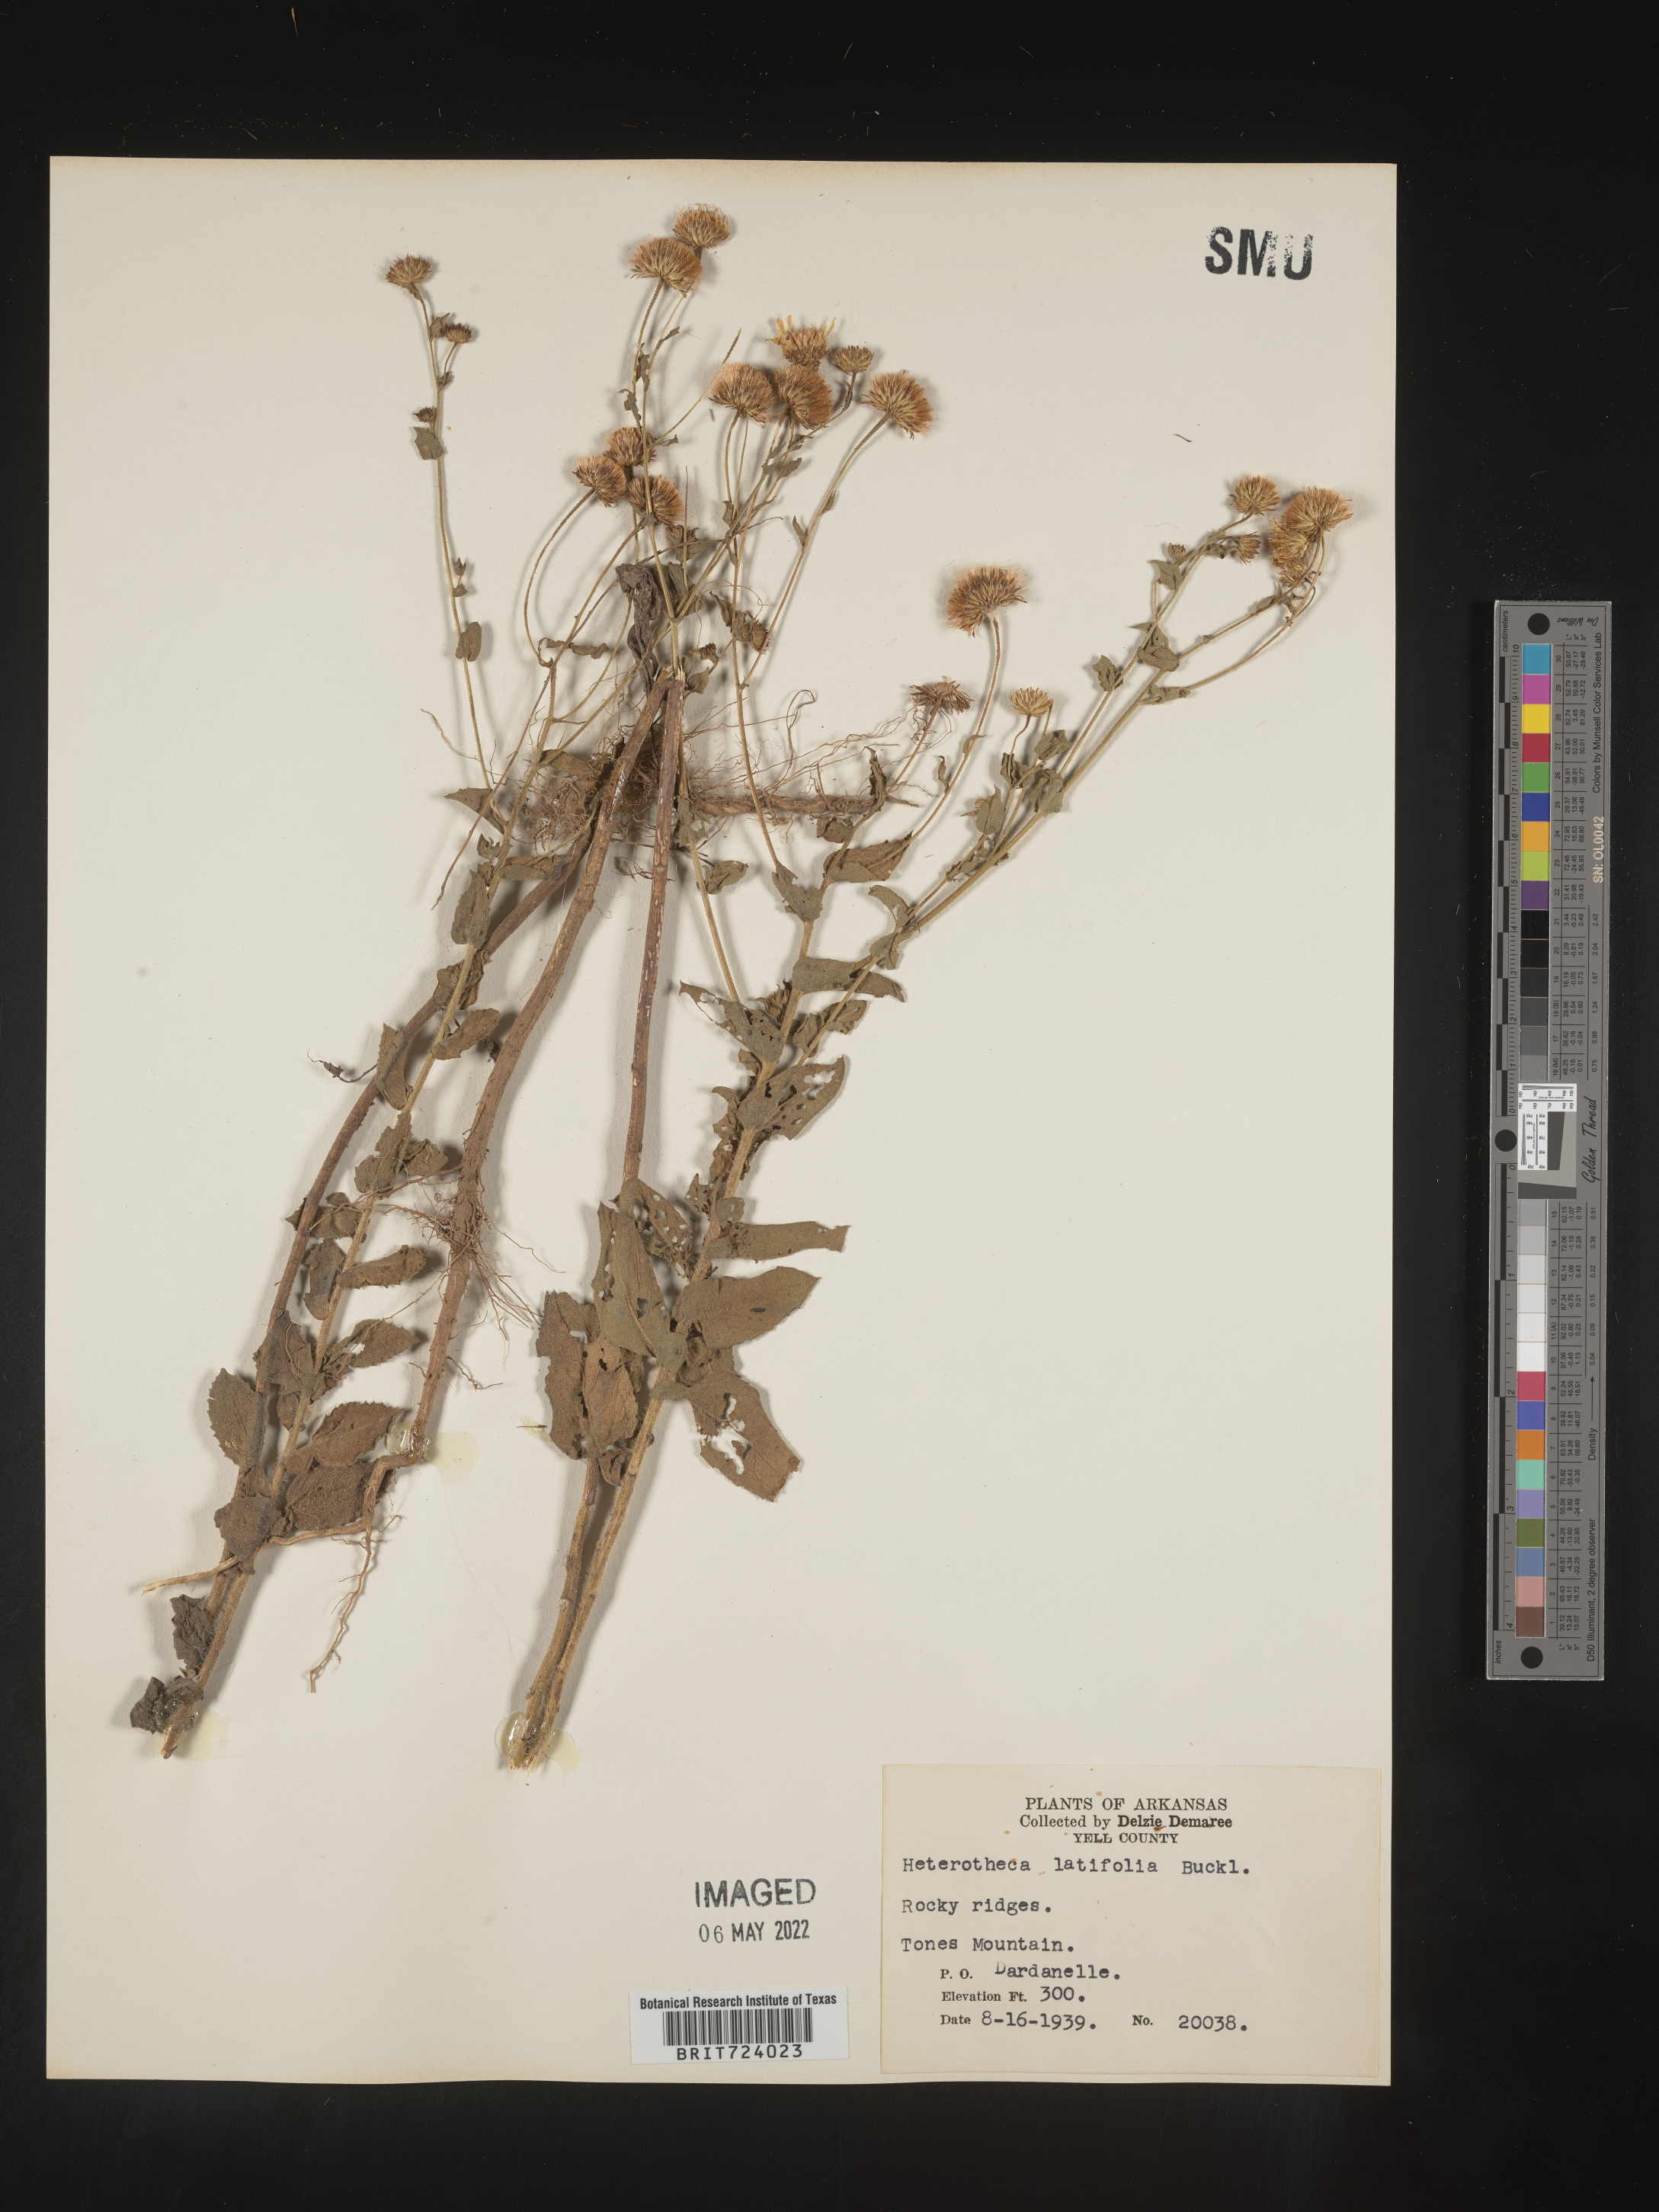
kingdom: Plantae
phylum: Tracheophyta
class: Magnoliopsida
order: Asterales
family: Asteraceae
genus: Heterotheca
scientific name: Heterotheca subaxillaris
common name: Camphorweed
